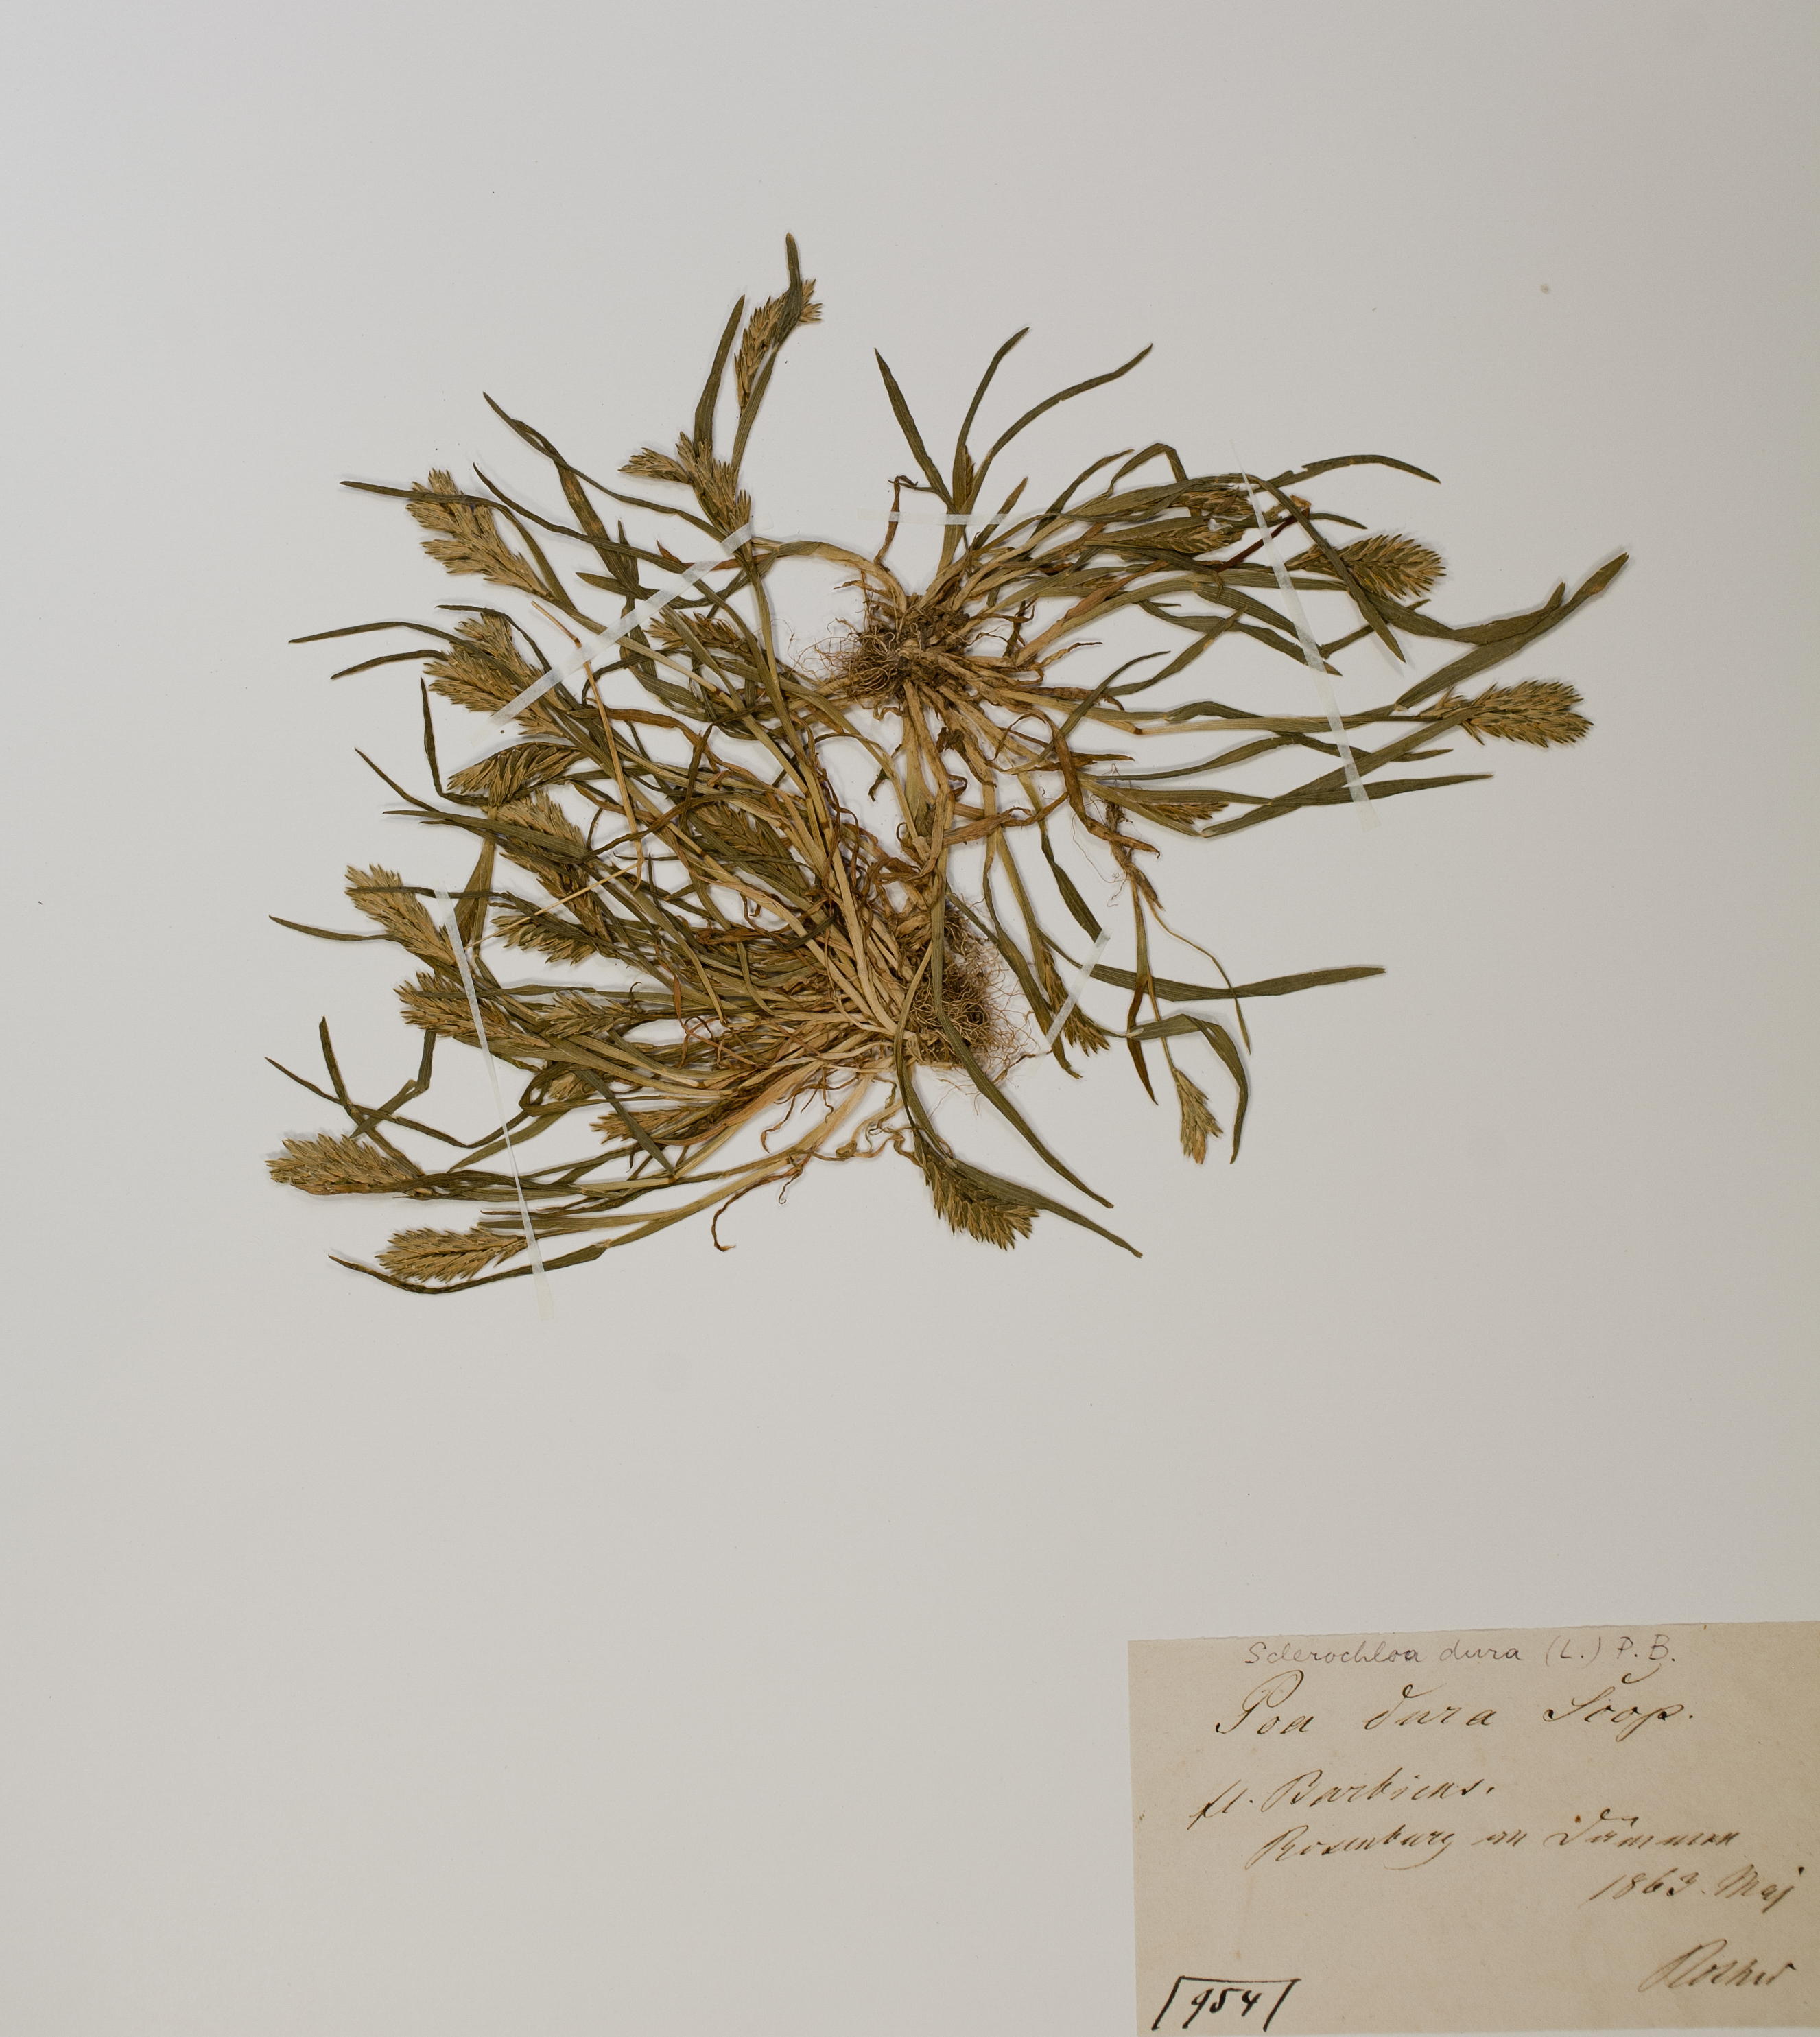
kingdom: Plantae
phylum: Tracheophyta
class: Liliopsida
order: Poales
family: Poaceae
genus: Sclerochloa
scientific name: Sclerochloa dura
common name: Common hardgrass
